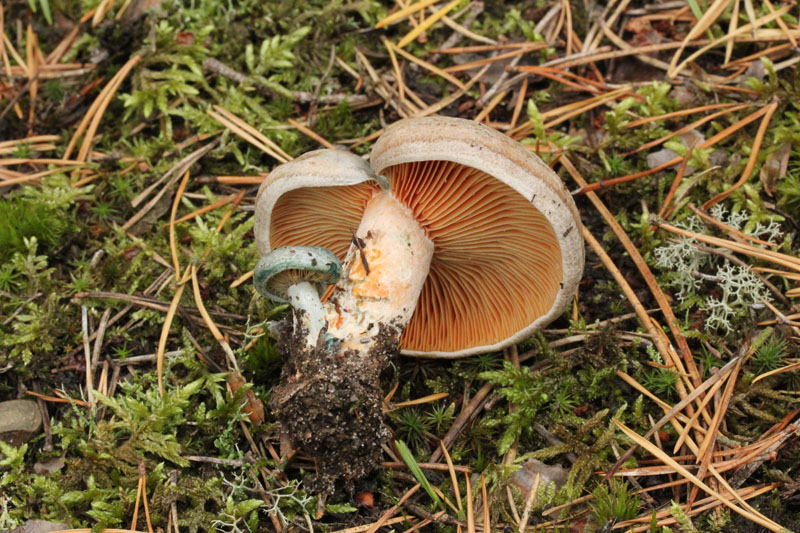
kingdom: Fungi
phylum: Basidiomycota
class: Agaricomycetes
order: Russulales
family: Russulaceae
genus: Lactarius
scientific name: Lactarius quieticolor
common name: tvefarvet mælkehat
